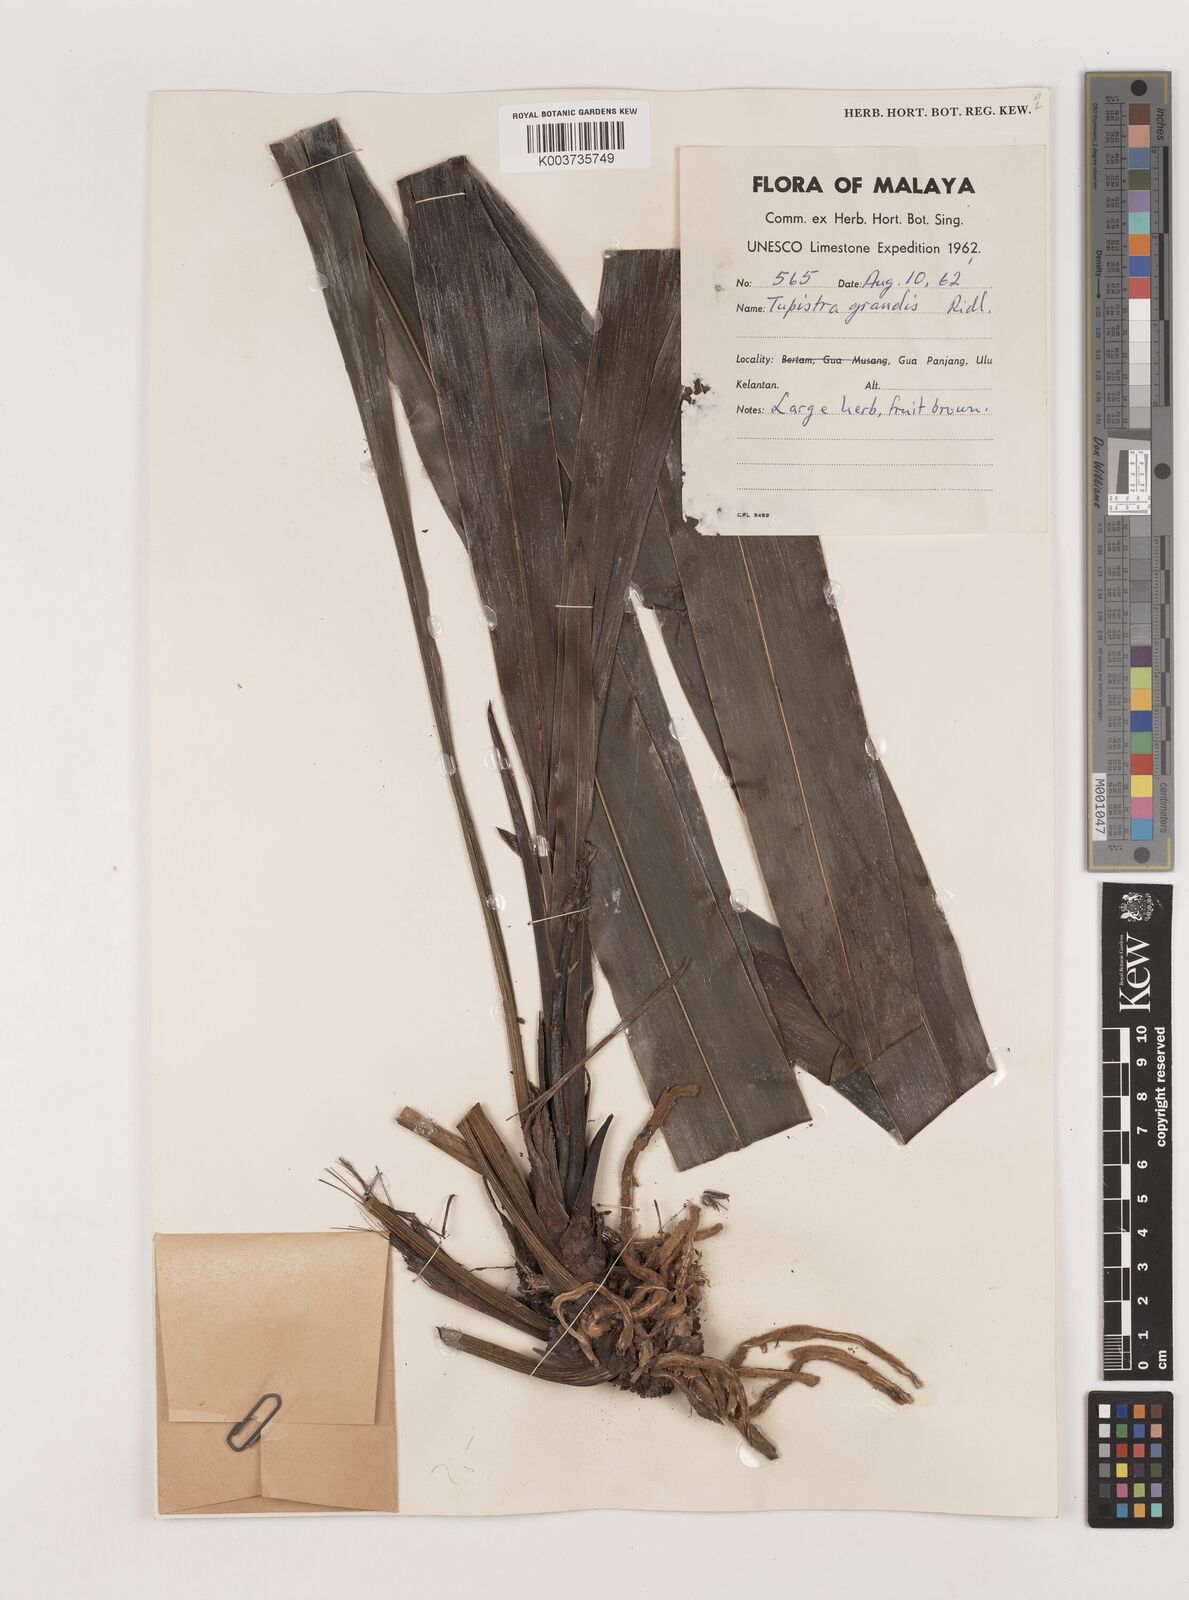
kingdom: Plantae
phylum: Tracheophyta
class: Liliopsida
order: Asparagales
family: Asparagaceae
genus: Tupistra
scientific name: Tupistra grandis
